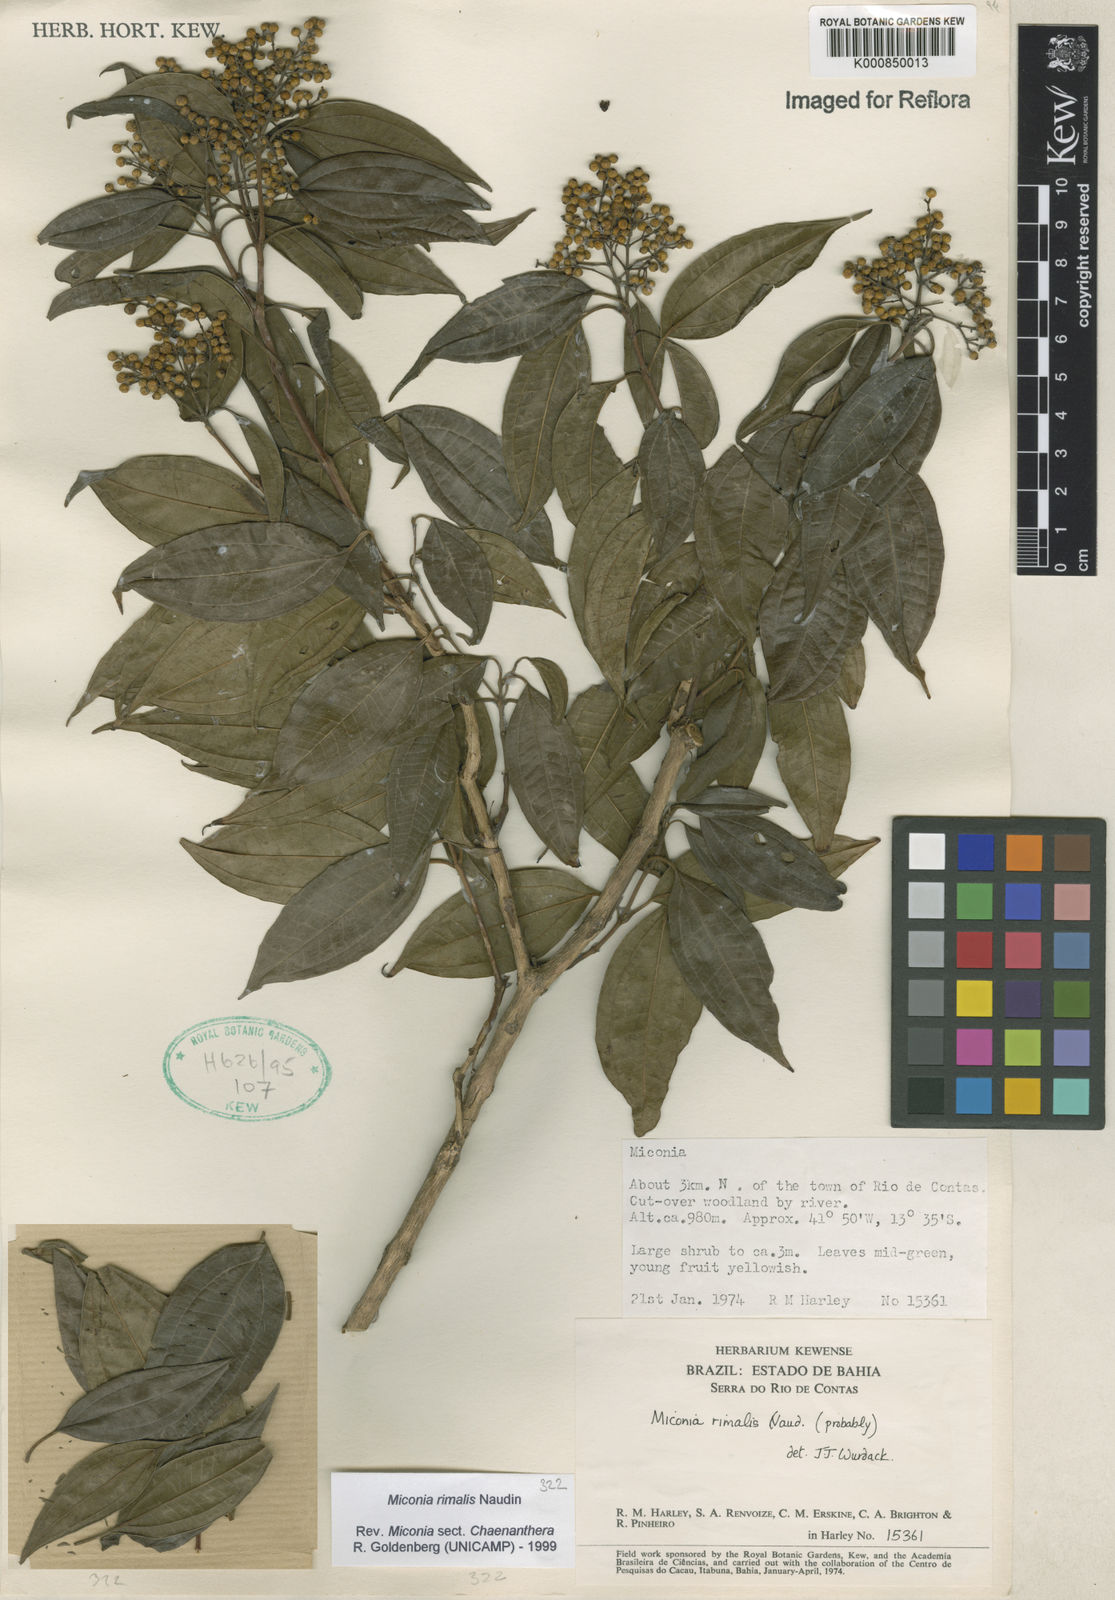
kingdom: Plantae
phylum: Tracheophyta
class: Magnoliopsida
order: Myrtales
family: Melastomataceae
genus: Miconia
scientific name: Miconia
